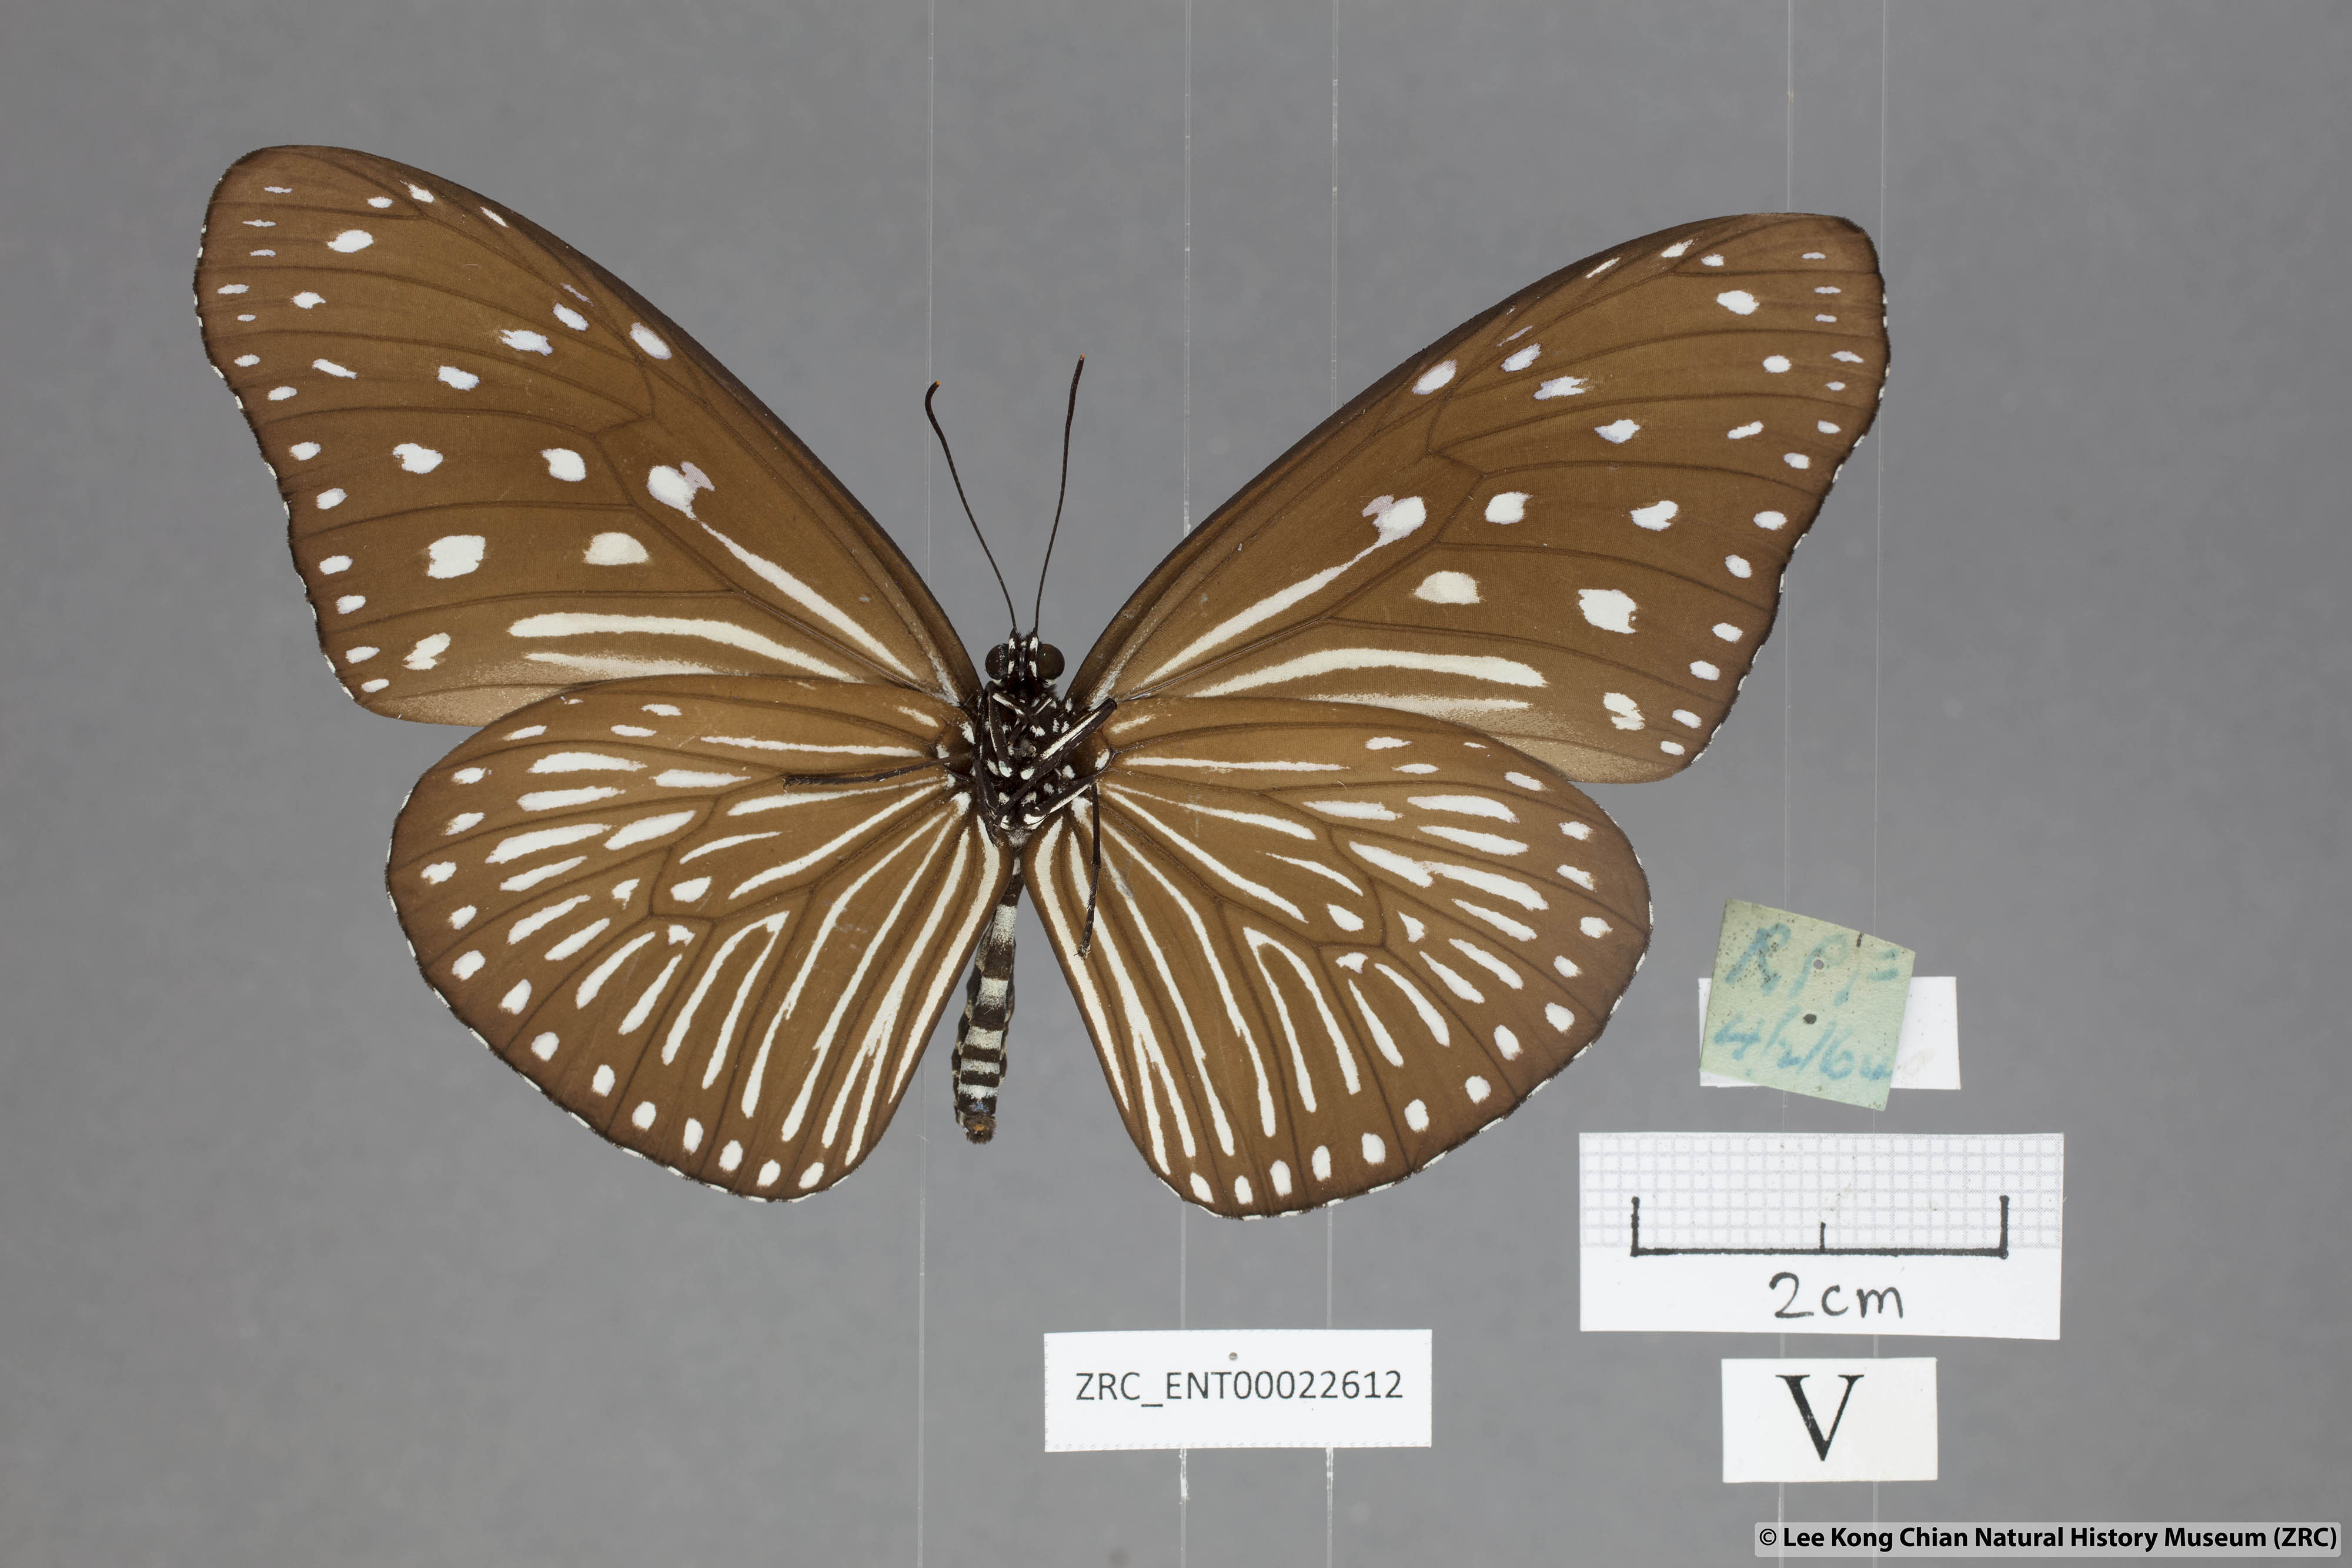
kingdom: Animalia
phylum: Arthropoda
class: Insecta
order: Lepidoptera
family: Nymphalidae
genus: Euploea
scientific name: Euploea mulciber
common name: Striped blue crow butterfly
